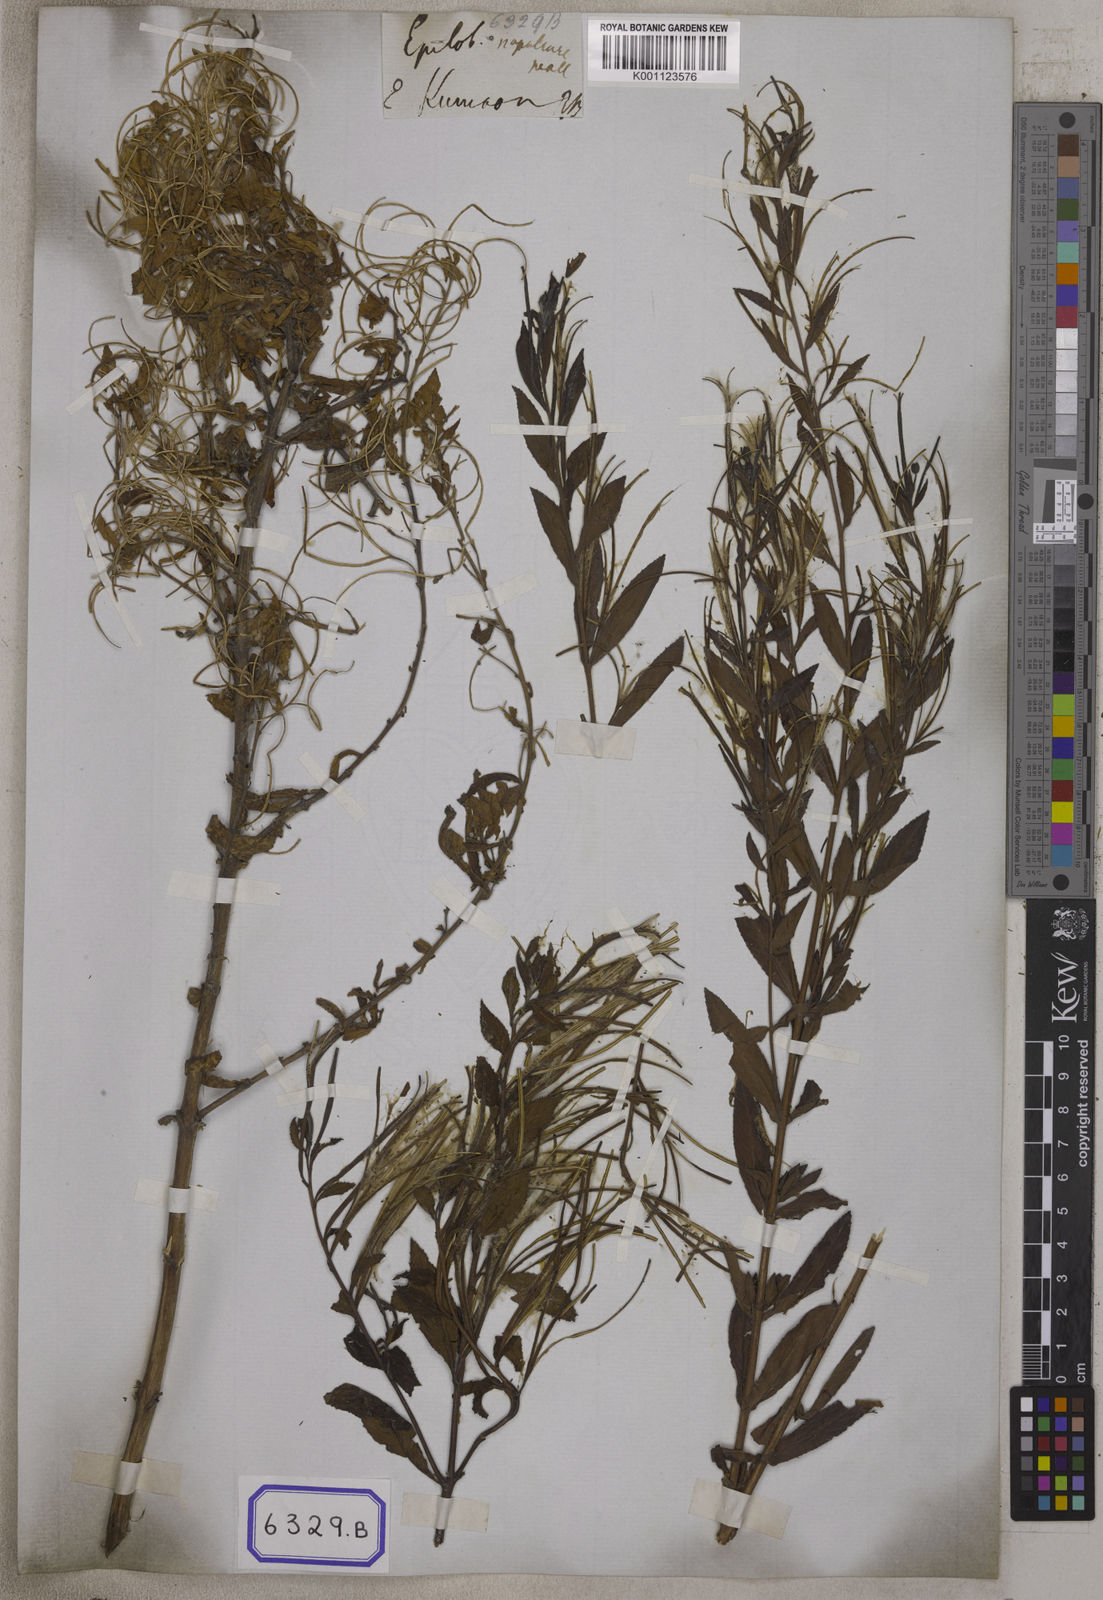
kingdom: Plantae
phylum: Tracheophyta
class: Magnoliopsida
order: Myrtales
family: Onagraceae
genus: Epilobium
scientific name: Epilobium
